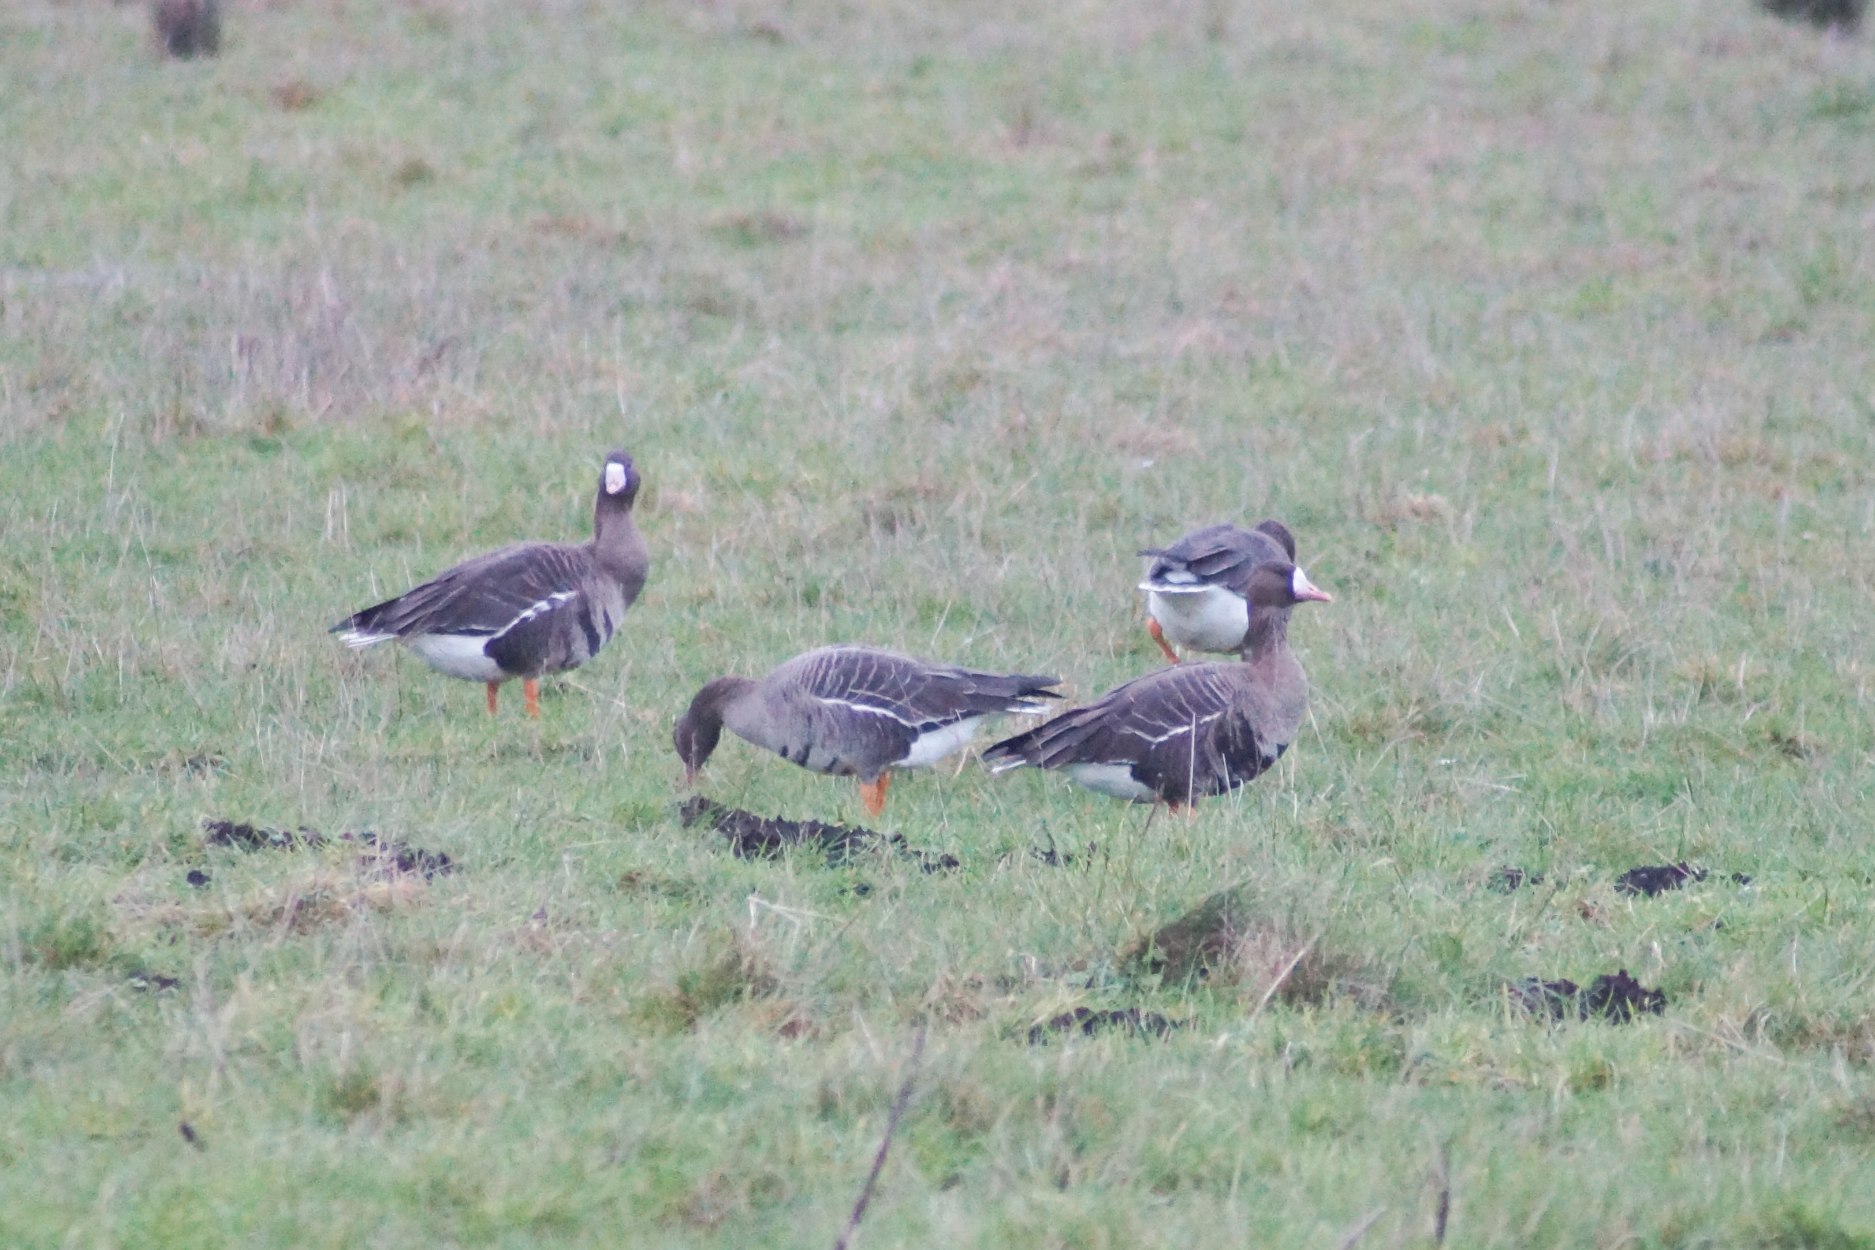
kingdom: Animalia
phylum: Chordata
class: Aves
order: Anseriformes
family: Anatidae
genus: Anser
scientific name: Anser albifrons
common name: Blisgås
